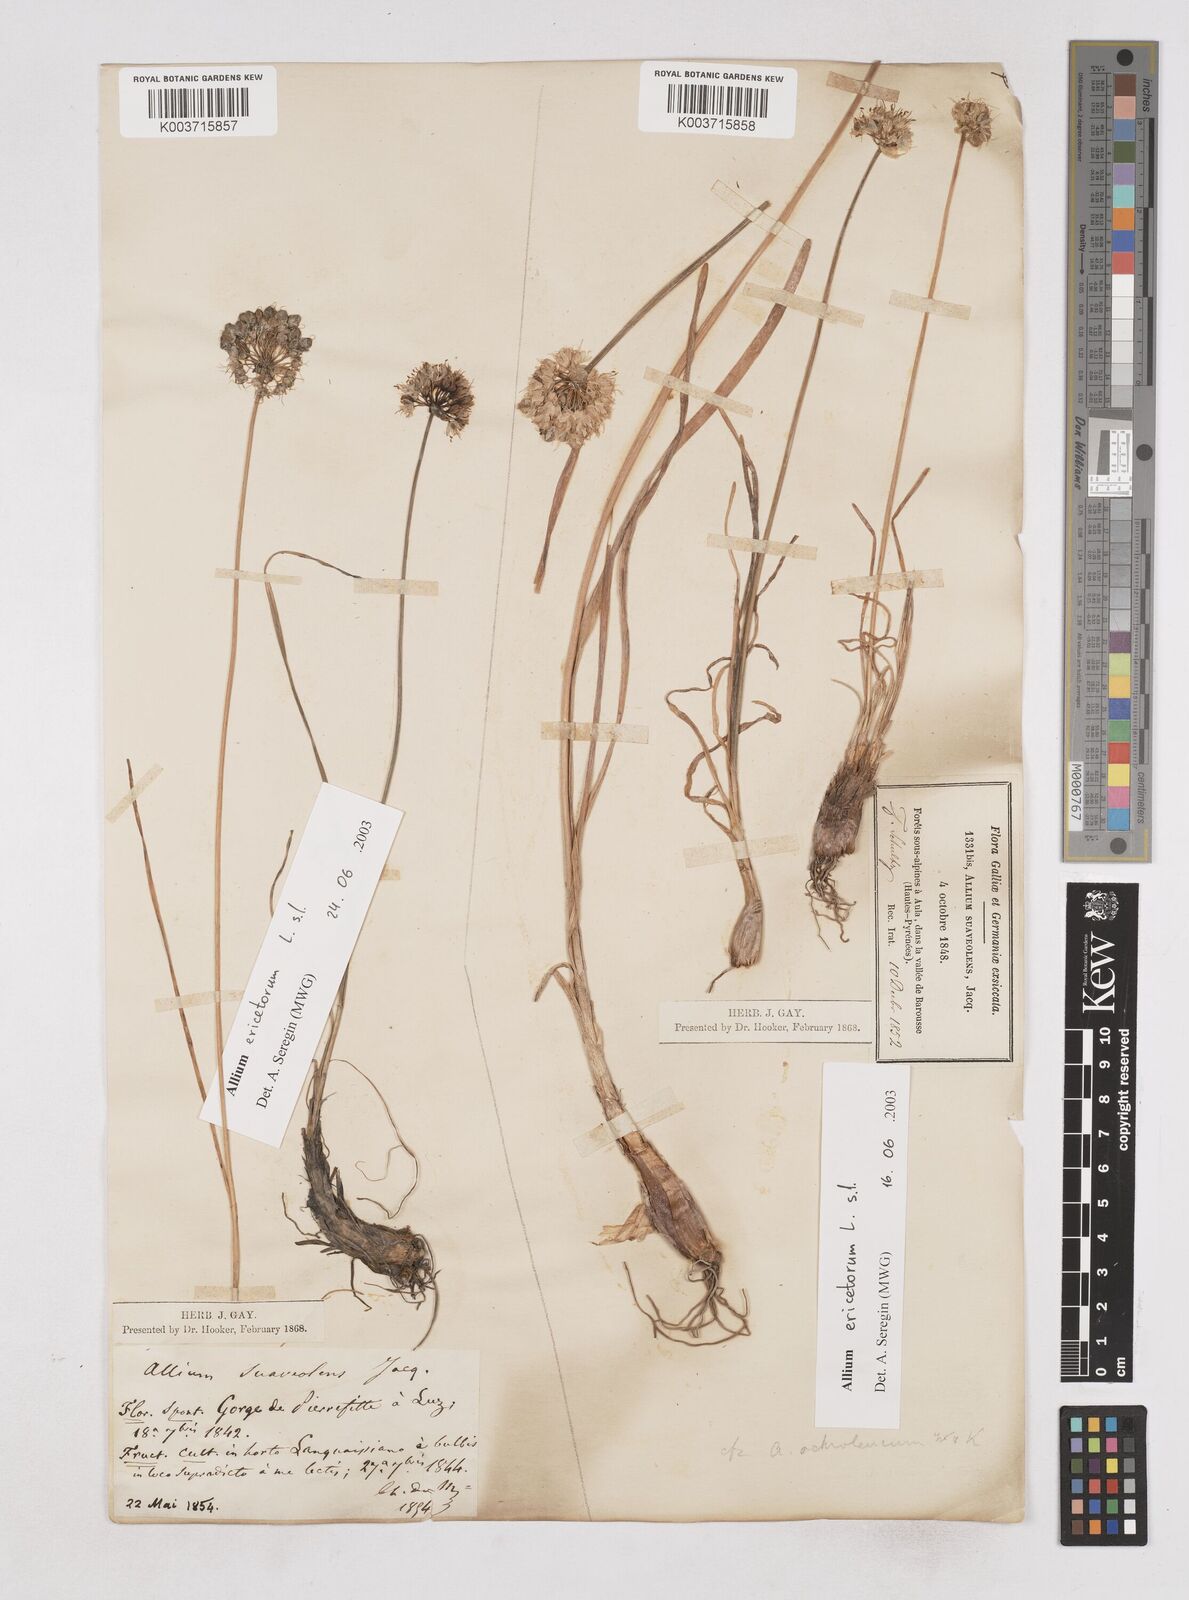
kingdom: Plantae
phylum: Tracheophyta
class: Liliopsida
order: Asparagales
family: Amaryllidaceae
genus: Allium
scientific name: Allium ericetorum
